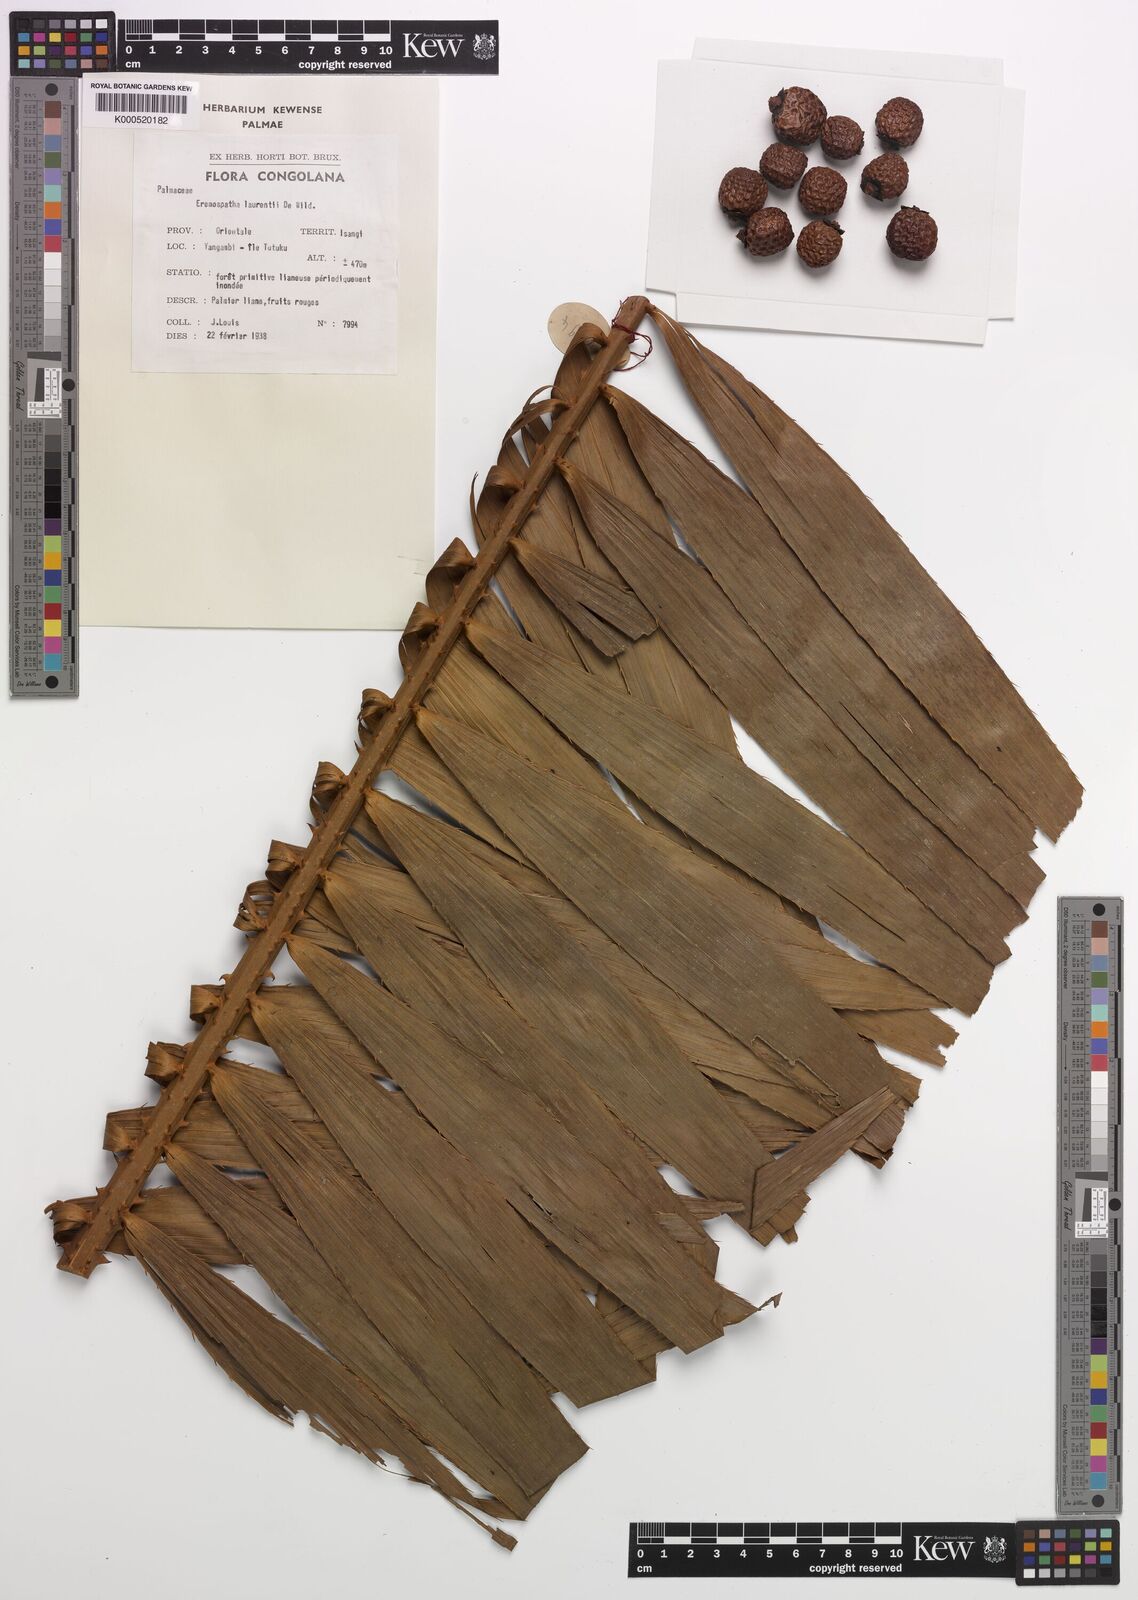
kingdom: Plantae
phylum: Tracheophyta
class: Liliopsida
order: Arecales
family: Arecaceae
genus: Eremospatha
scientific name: Eremospatha laurentii
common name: Rattan palm
